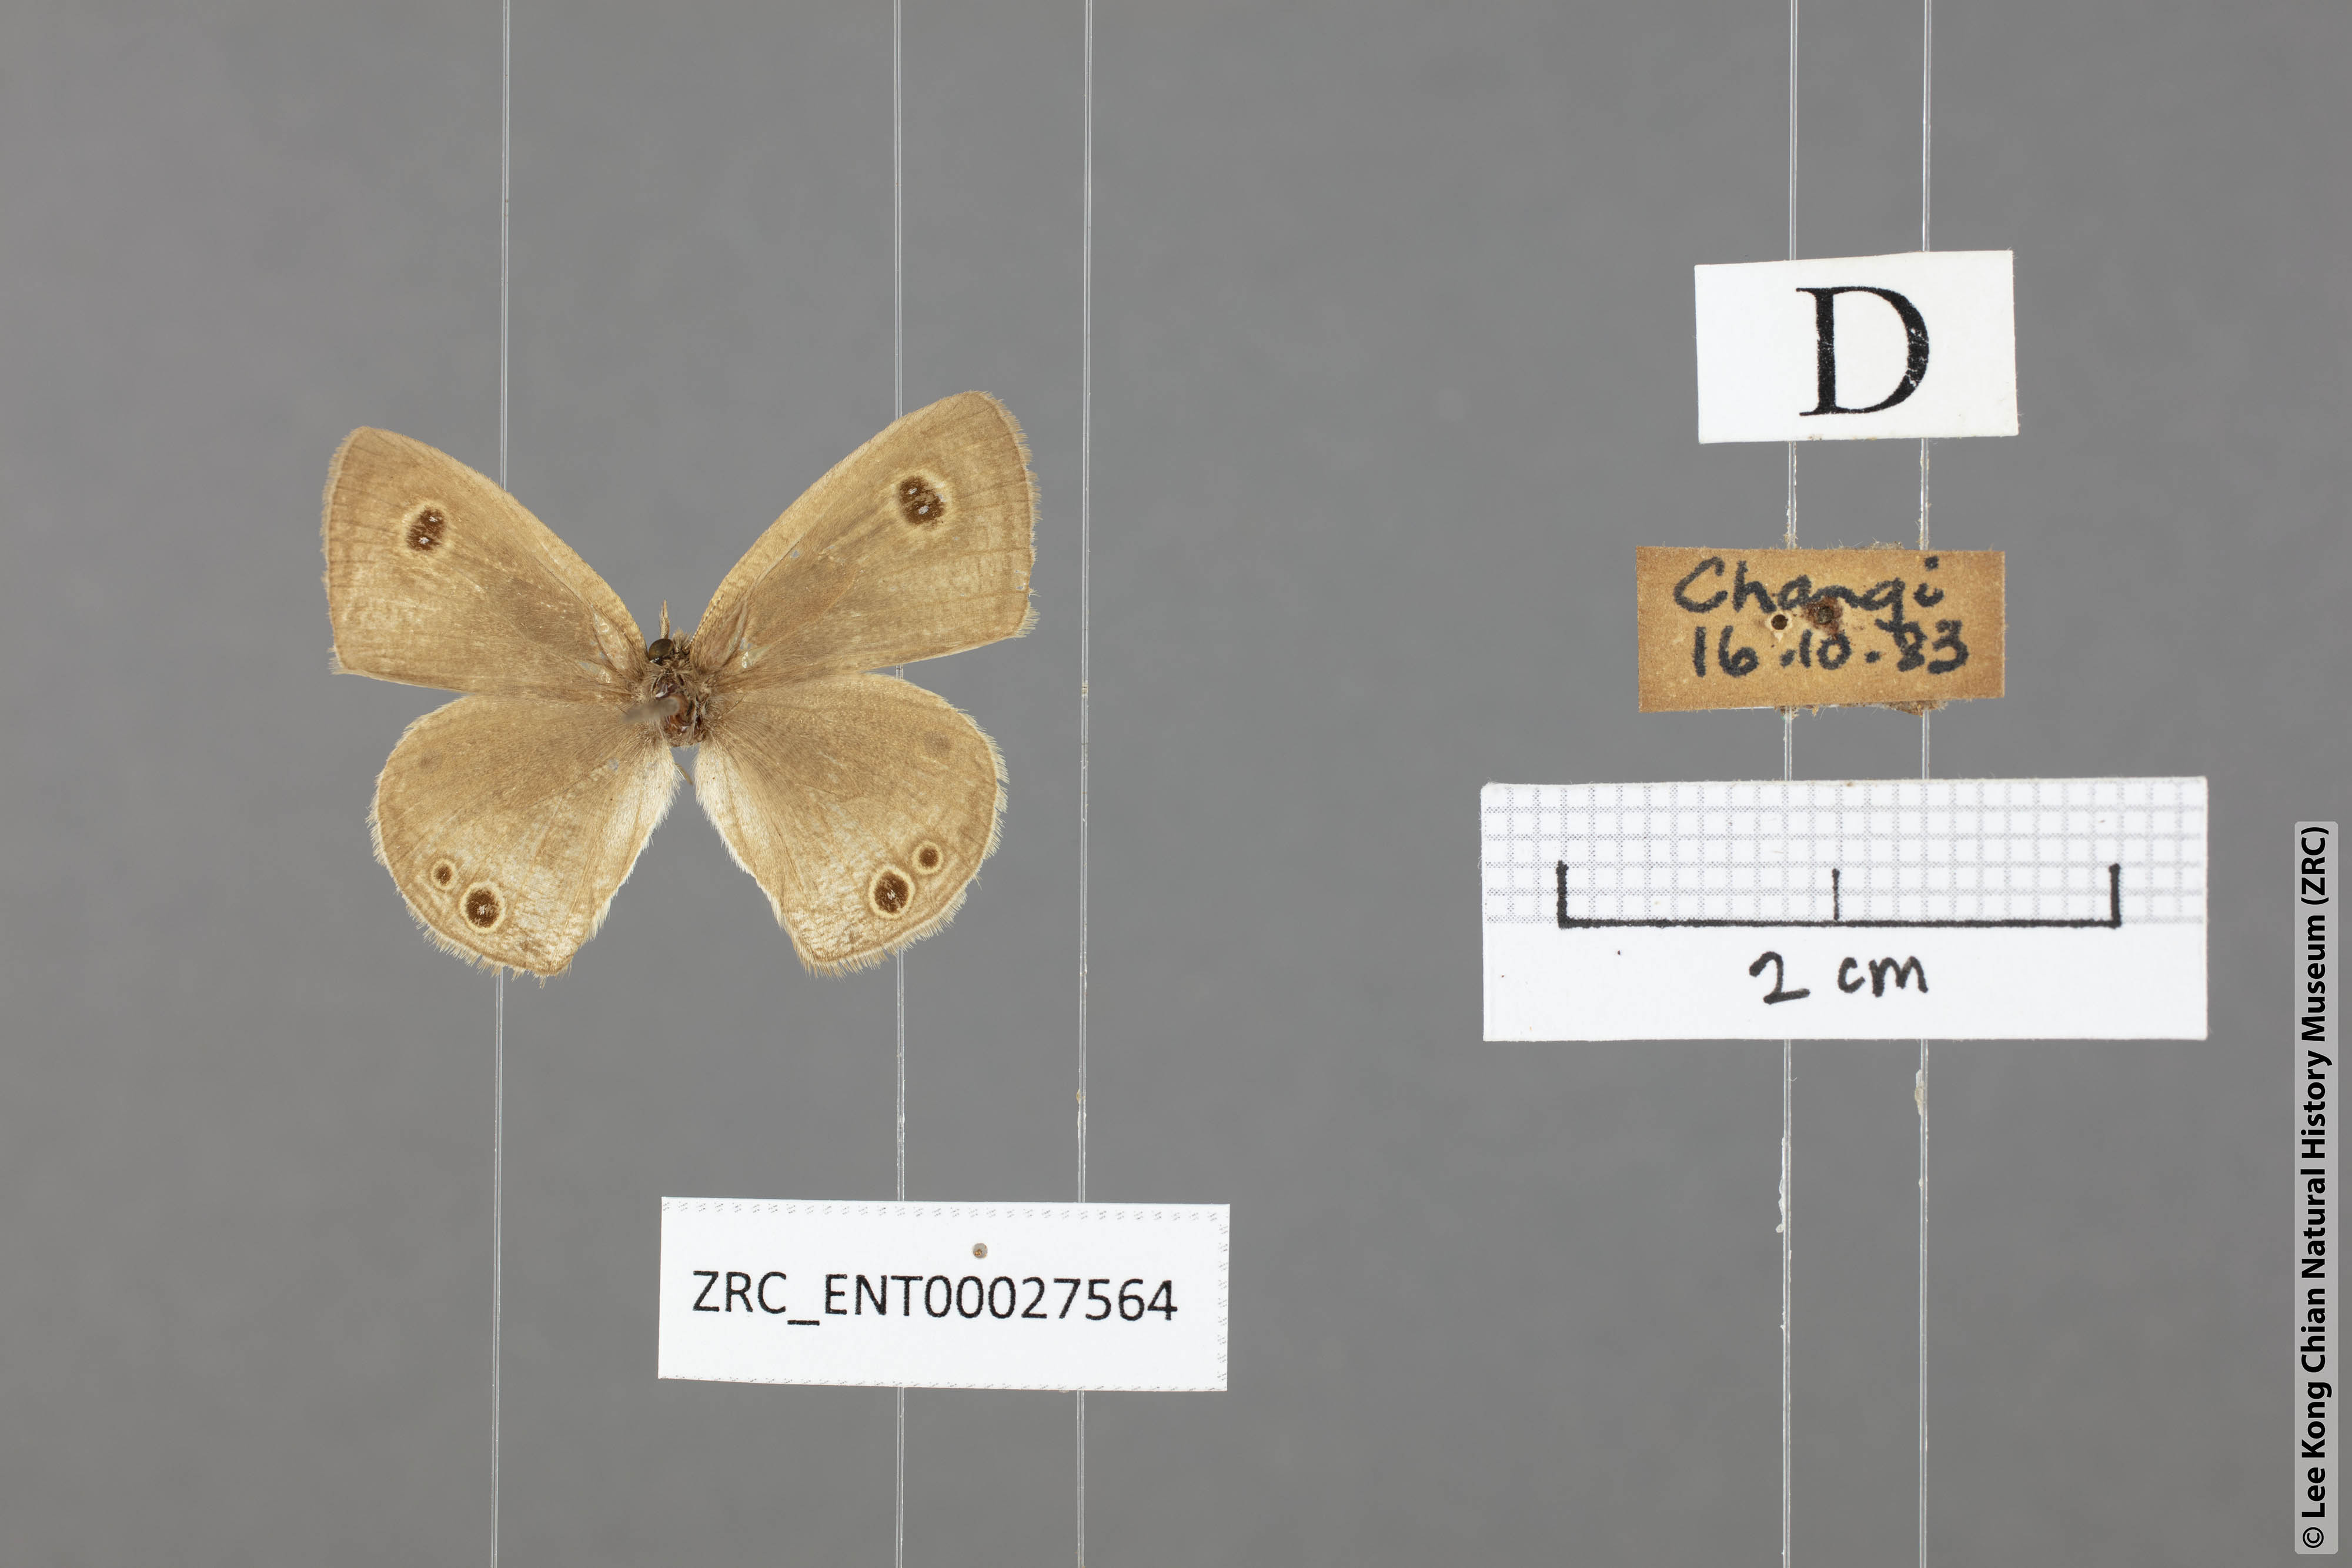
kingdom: Animalia
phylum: Arthropoda
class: Insecta
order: Lepidoptera
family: Nymphalidae
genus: Ypthima
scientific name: Ypthima huebneri
